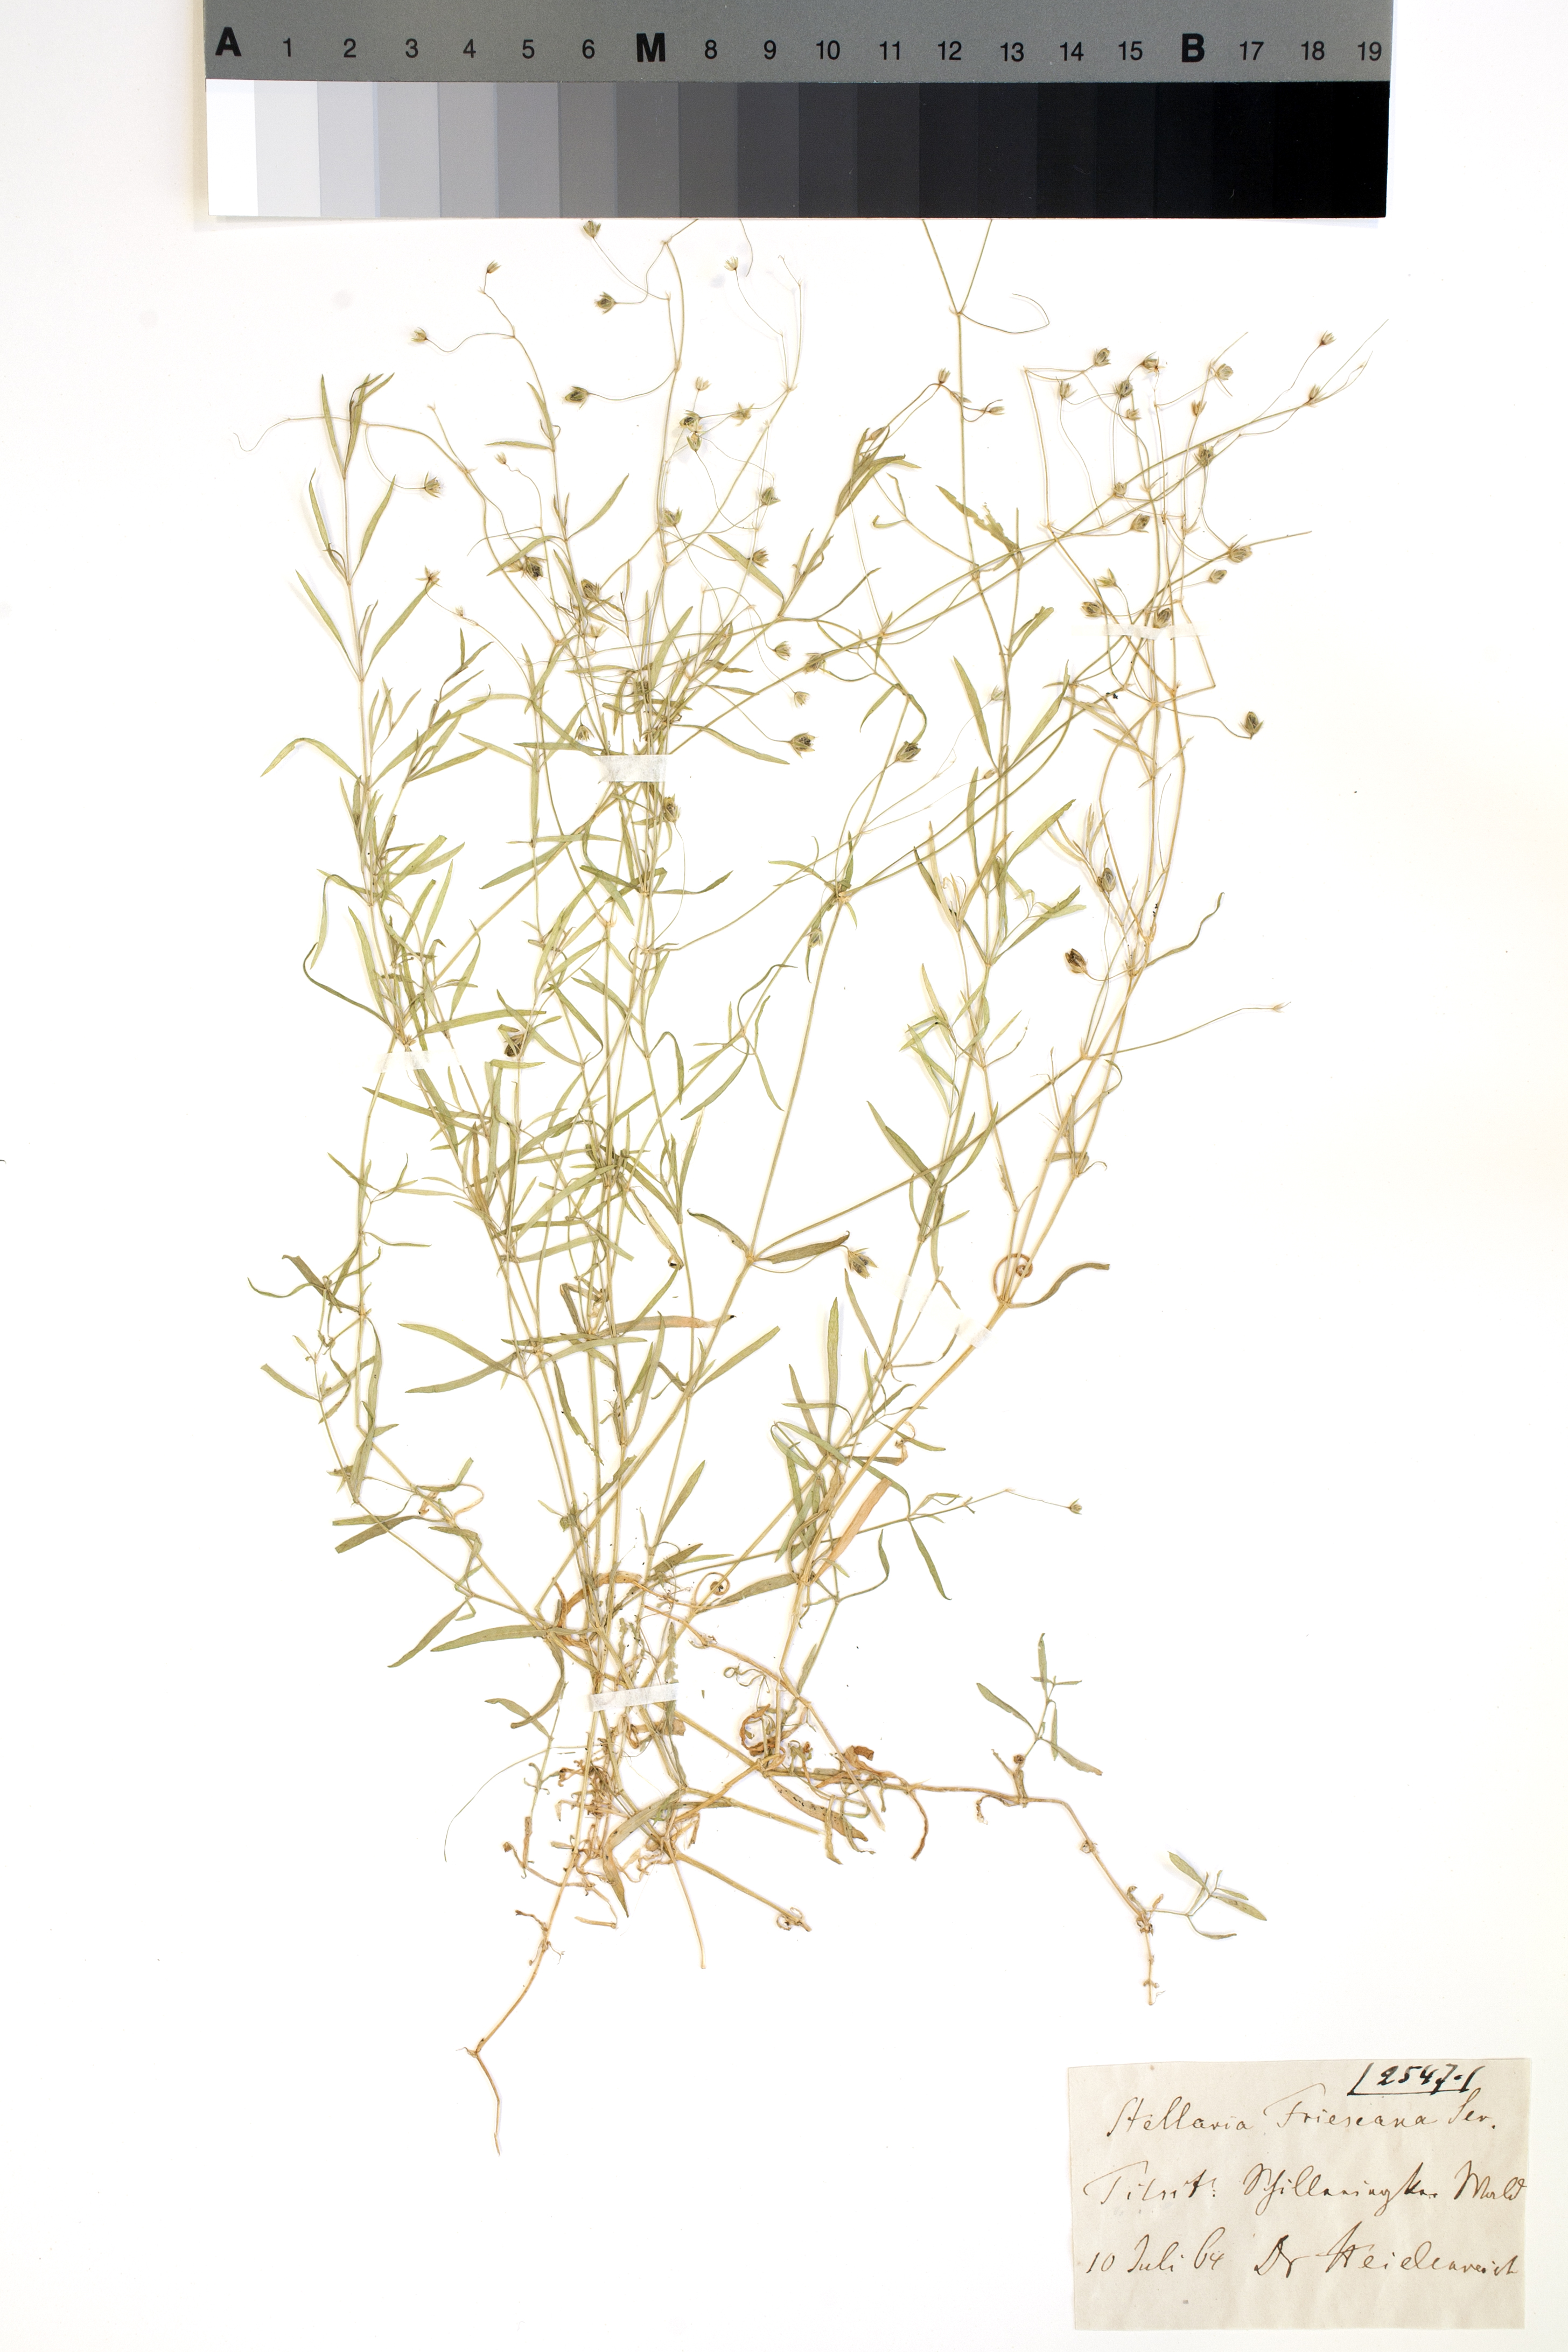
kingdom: Plantae
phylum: Tracheophyta
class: Magnoliopsida
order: Caryophyllales
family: Caryophyllaceae
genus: Stellaria
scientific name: Stellaria longifolia
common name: Long-leaved chickweed
